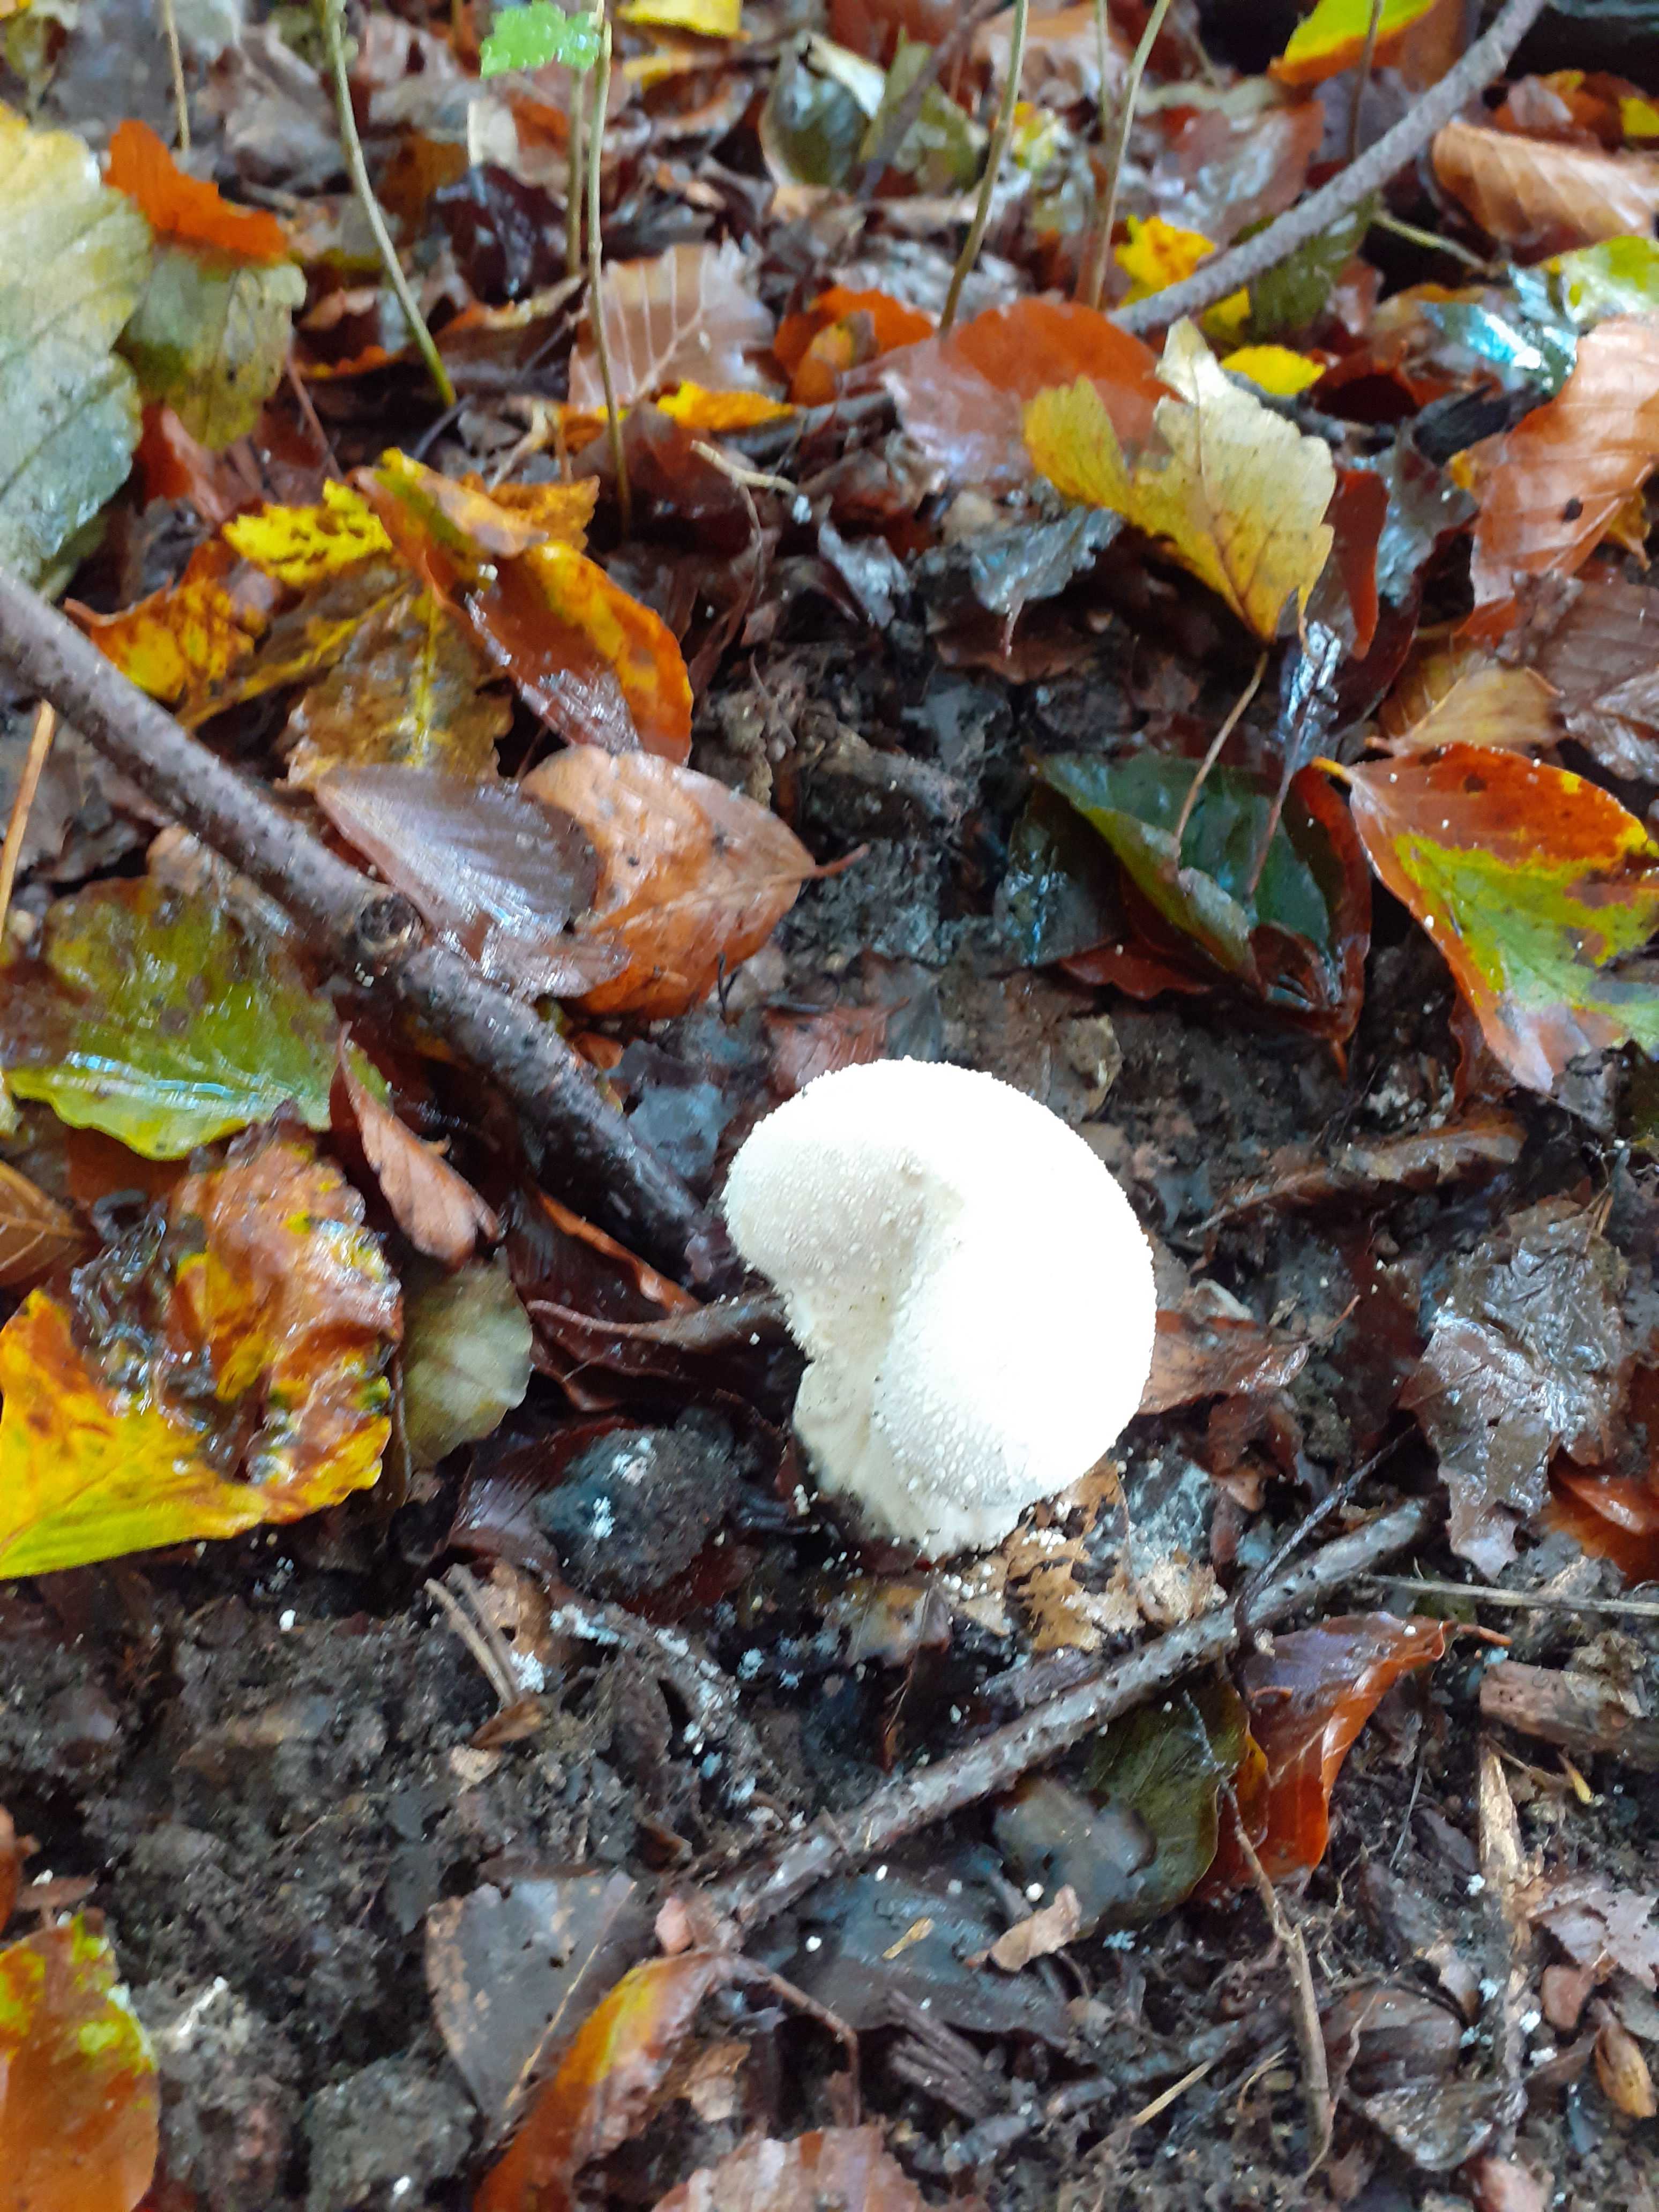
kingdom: Fungi
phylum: Basidiomycota
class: Agaricomycetes
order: Agaricales
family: Lycoperdaceae
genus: Lycoperdon
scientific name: Lycoperdon perlatum
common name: krystal-støvbold
